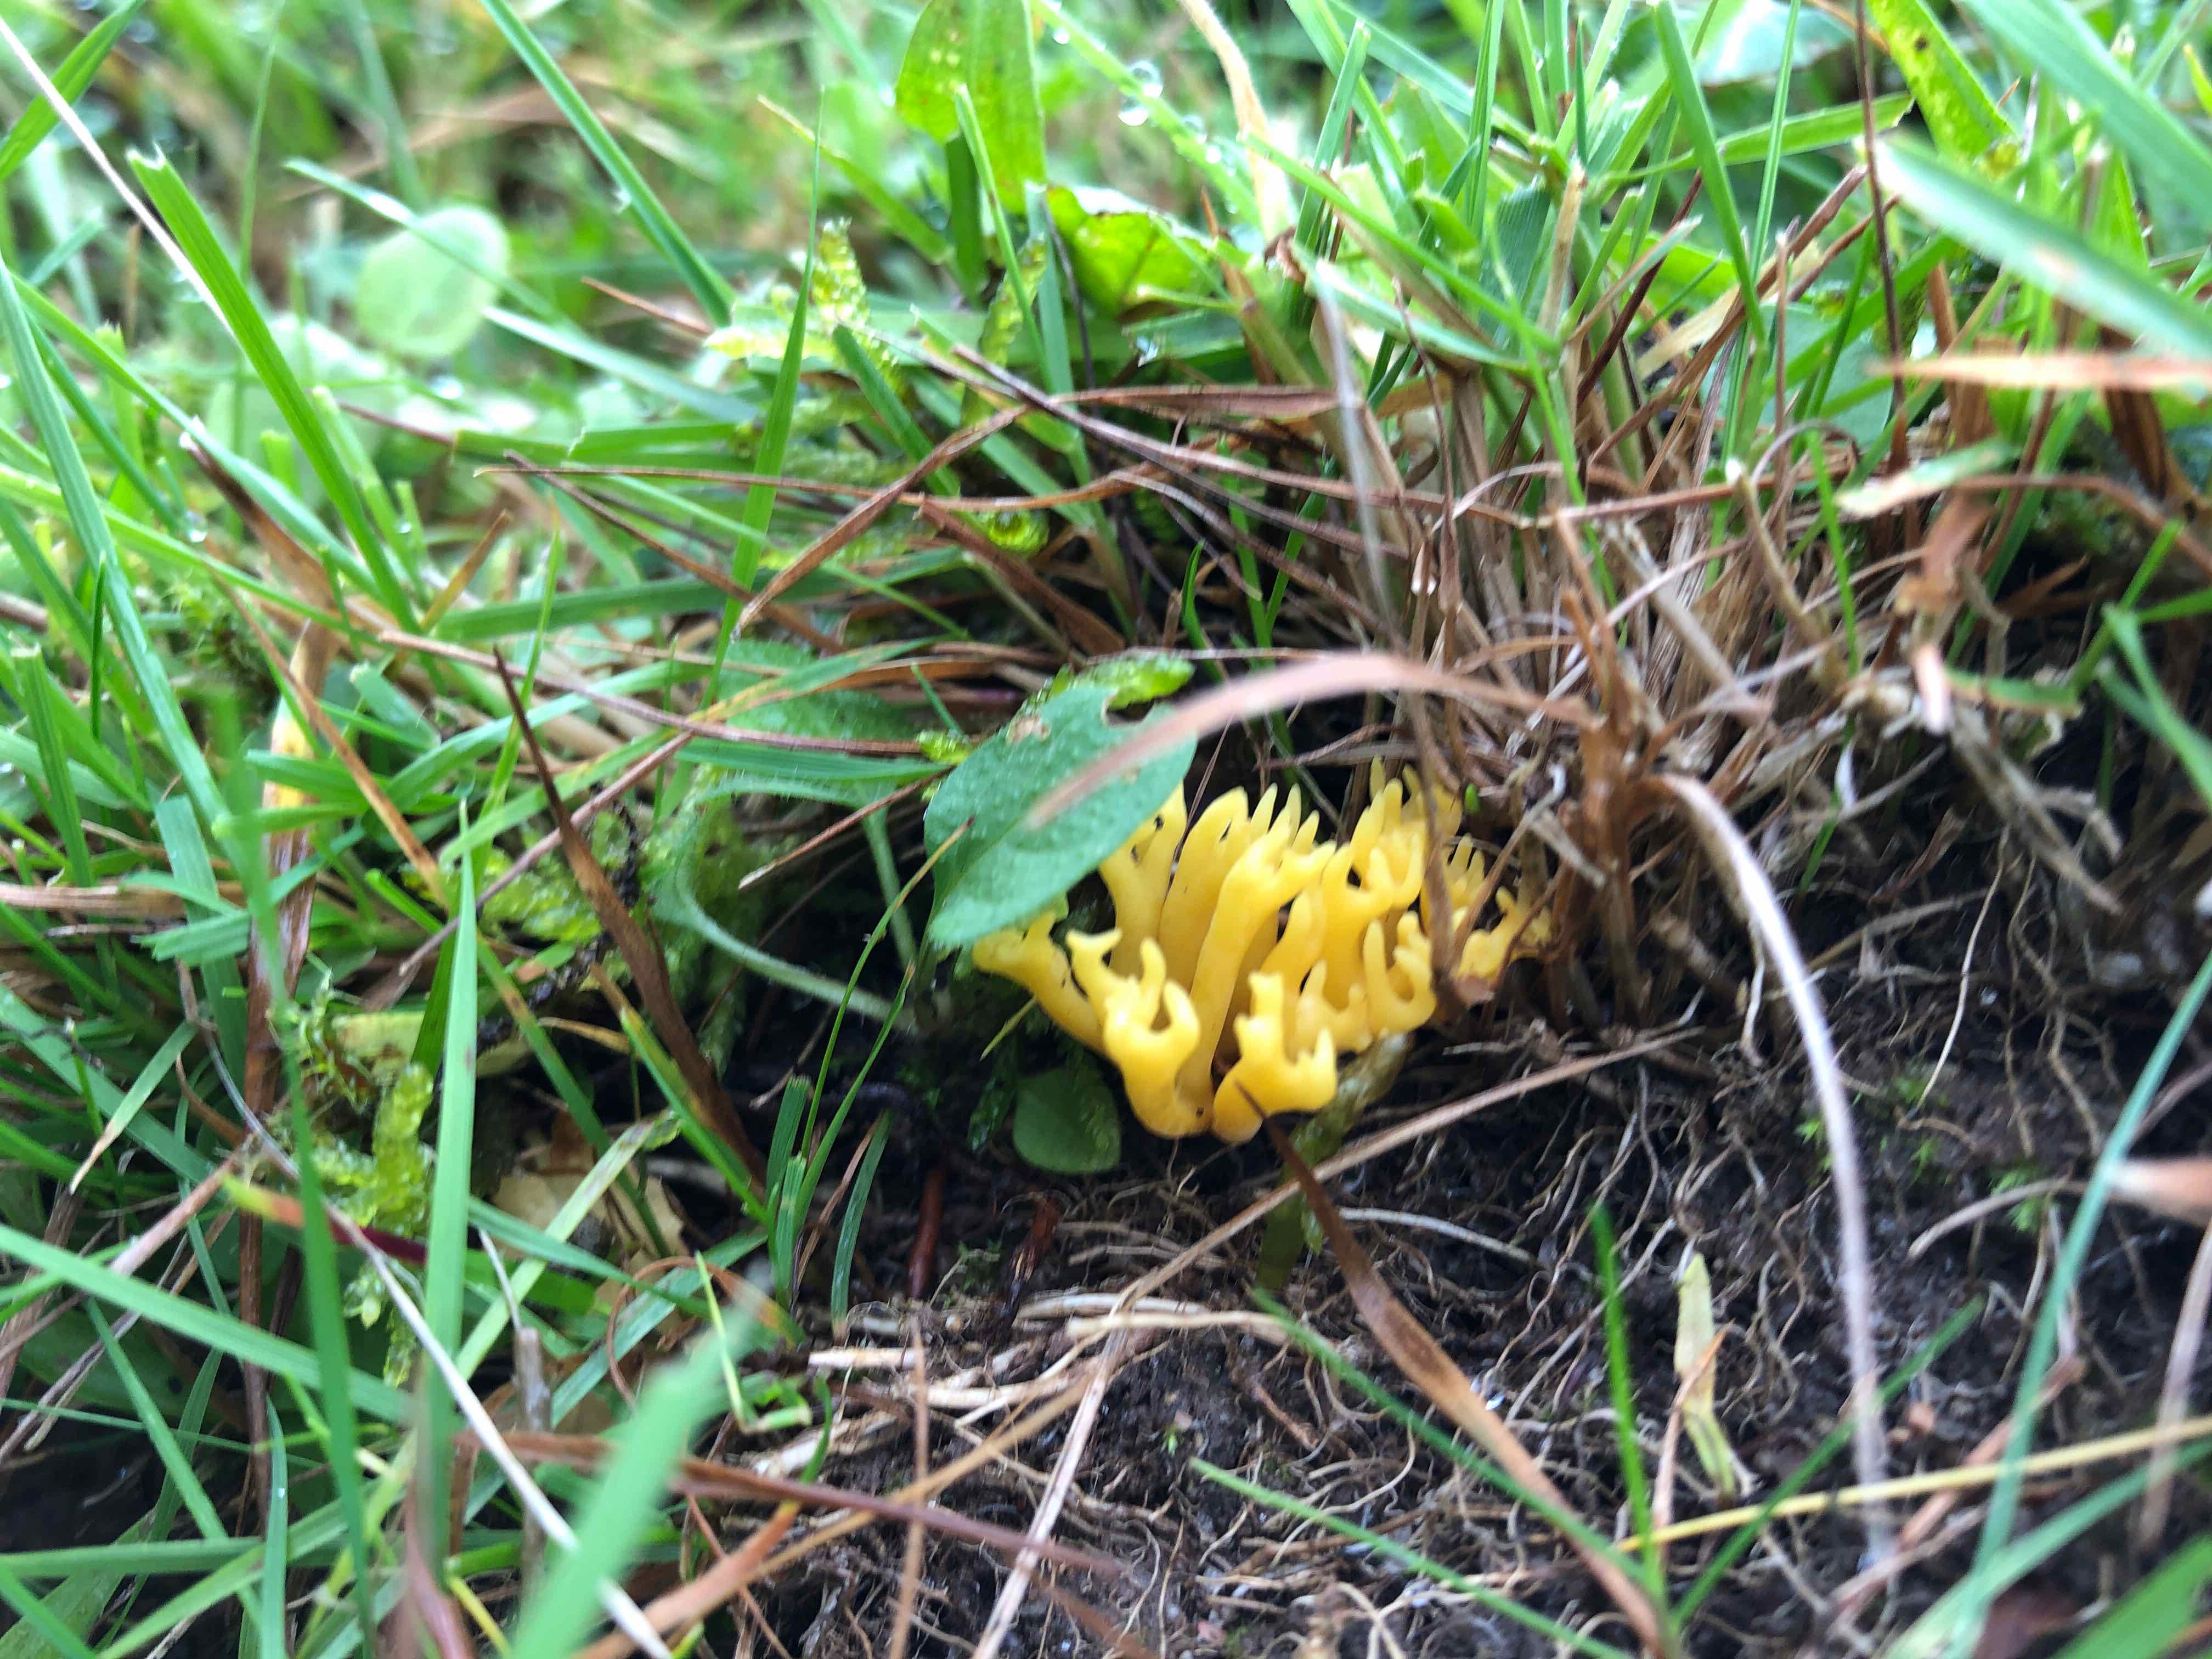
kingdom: Fungi
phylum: Basidiomycota
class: Agaricomycetes
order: Agaricales
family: Clavariaceae
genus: Clavulinopsis
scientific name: Clavulinopsis corniculata
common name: eng-køllesvamp
